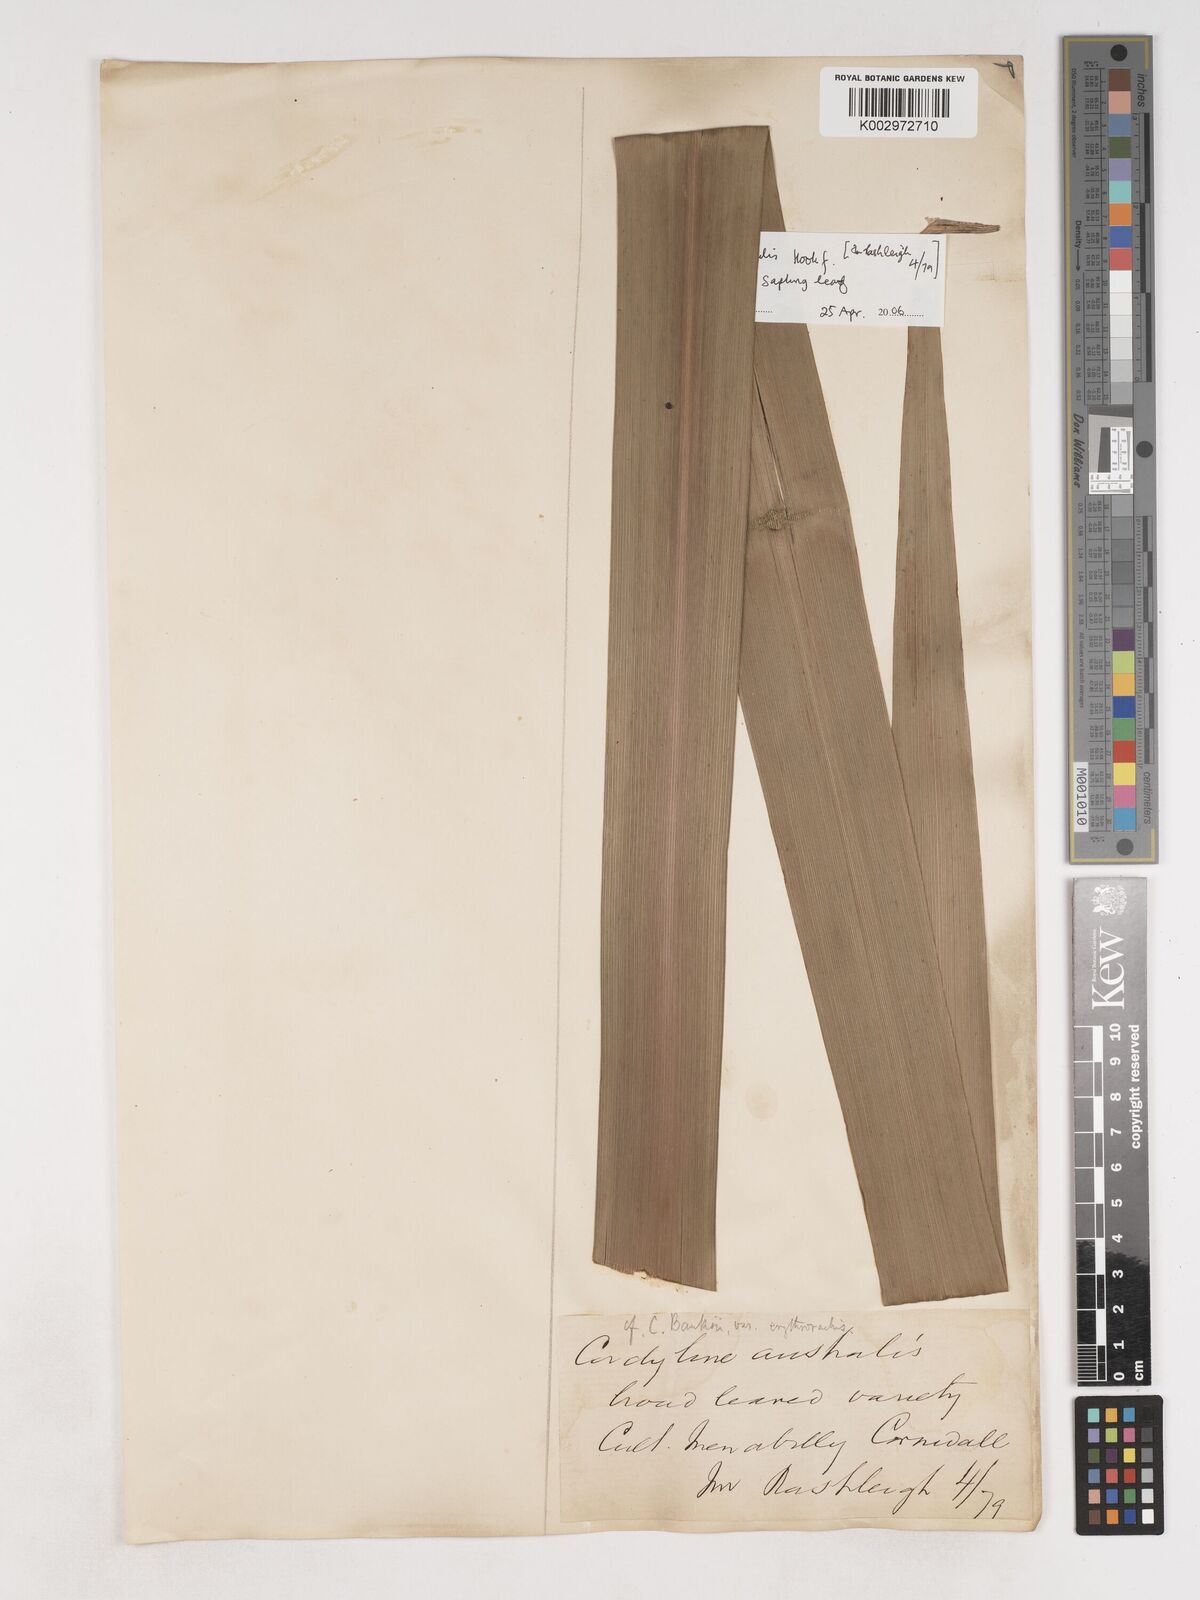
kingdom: Plantae
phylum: Tracheophyta
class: Liliopsida
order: Asparagales
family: Asparagaceae
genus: Cordyline
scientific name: Cordyline obtecta
